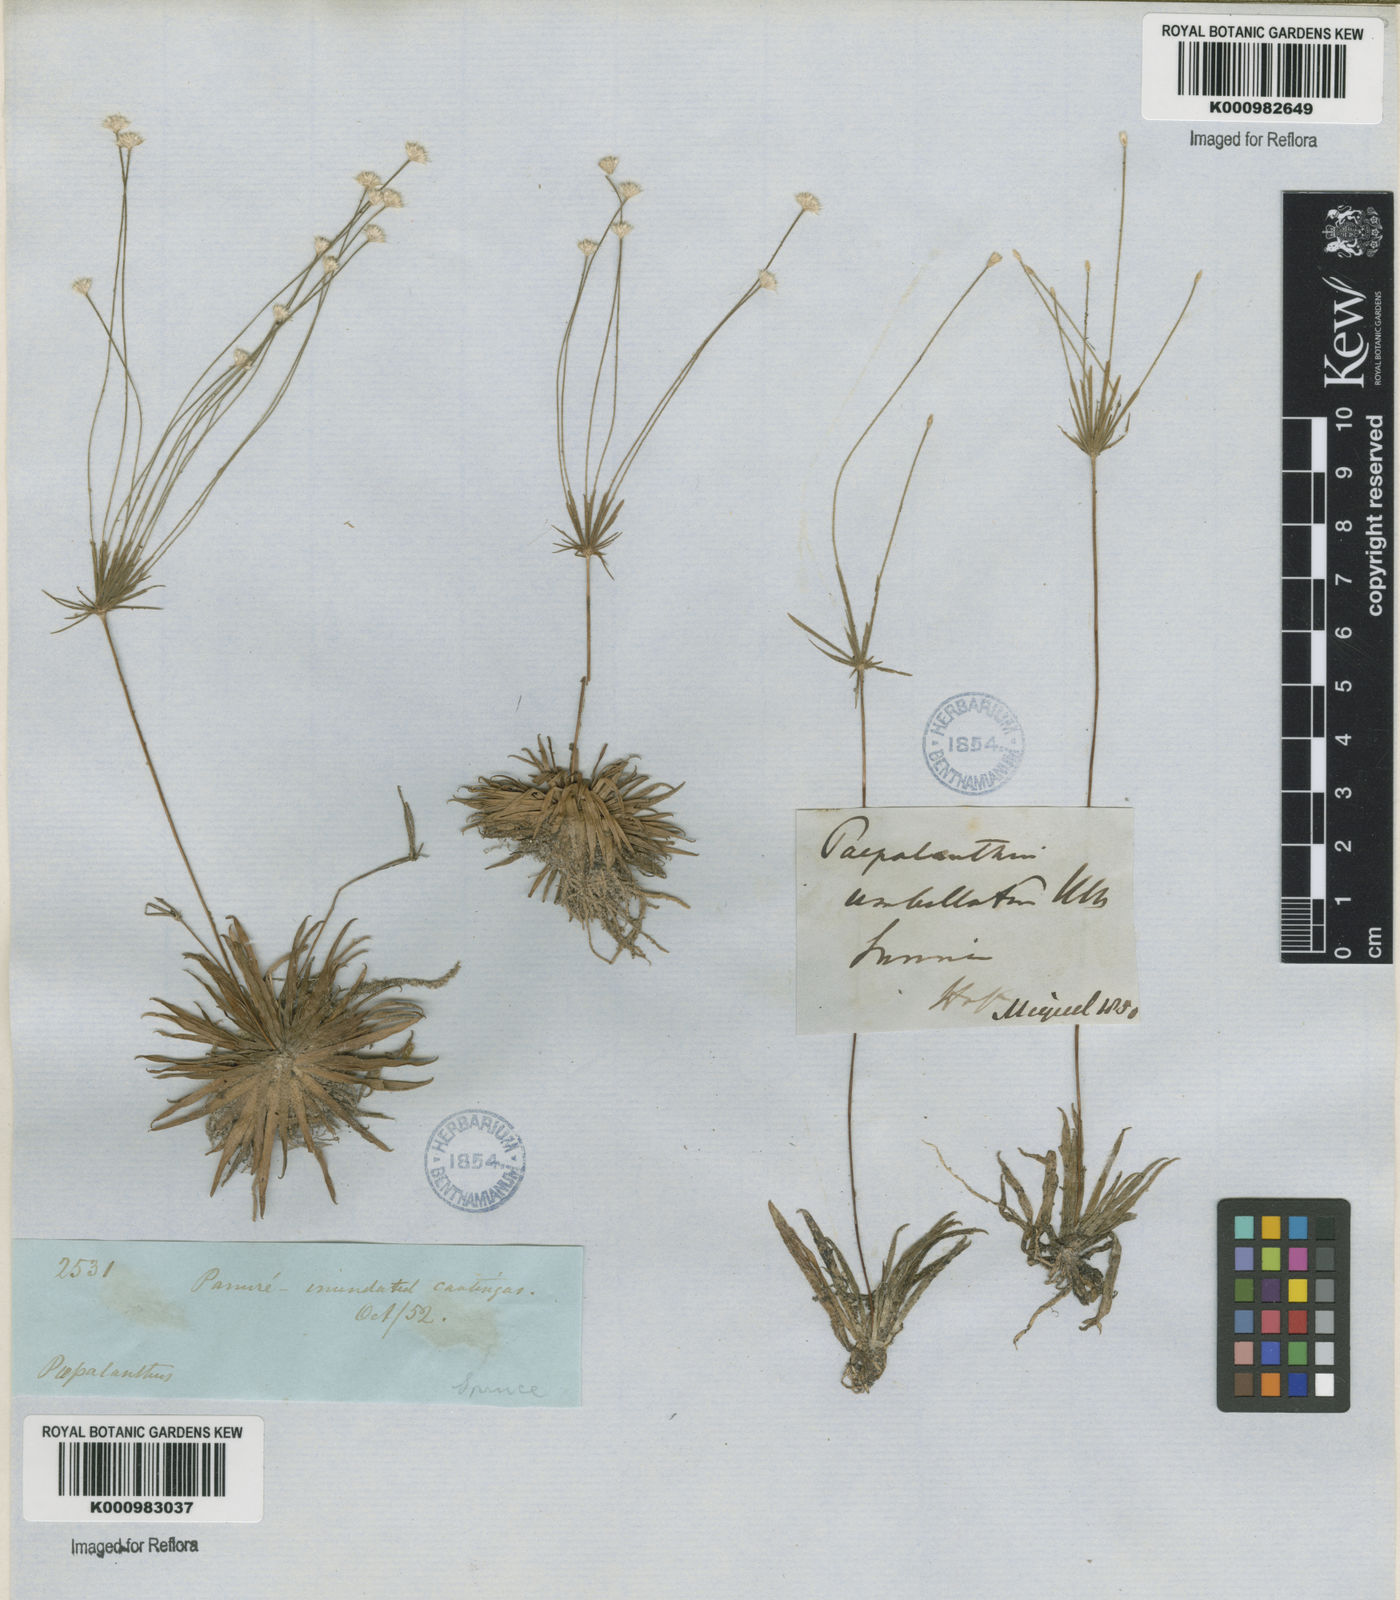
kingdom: Plantae
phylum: Tracheophyta
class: Liliopsida
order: Poales
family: Eriocaulaceae
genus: Syngonanthus
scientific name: Syngonanthus umbellatus
